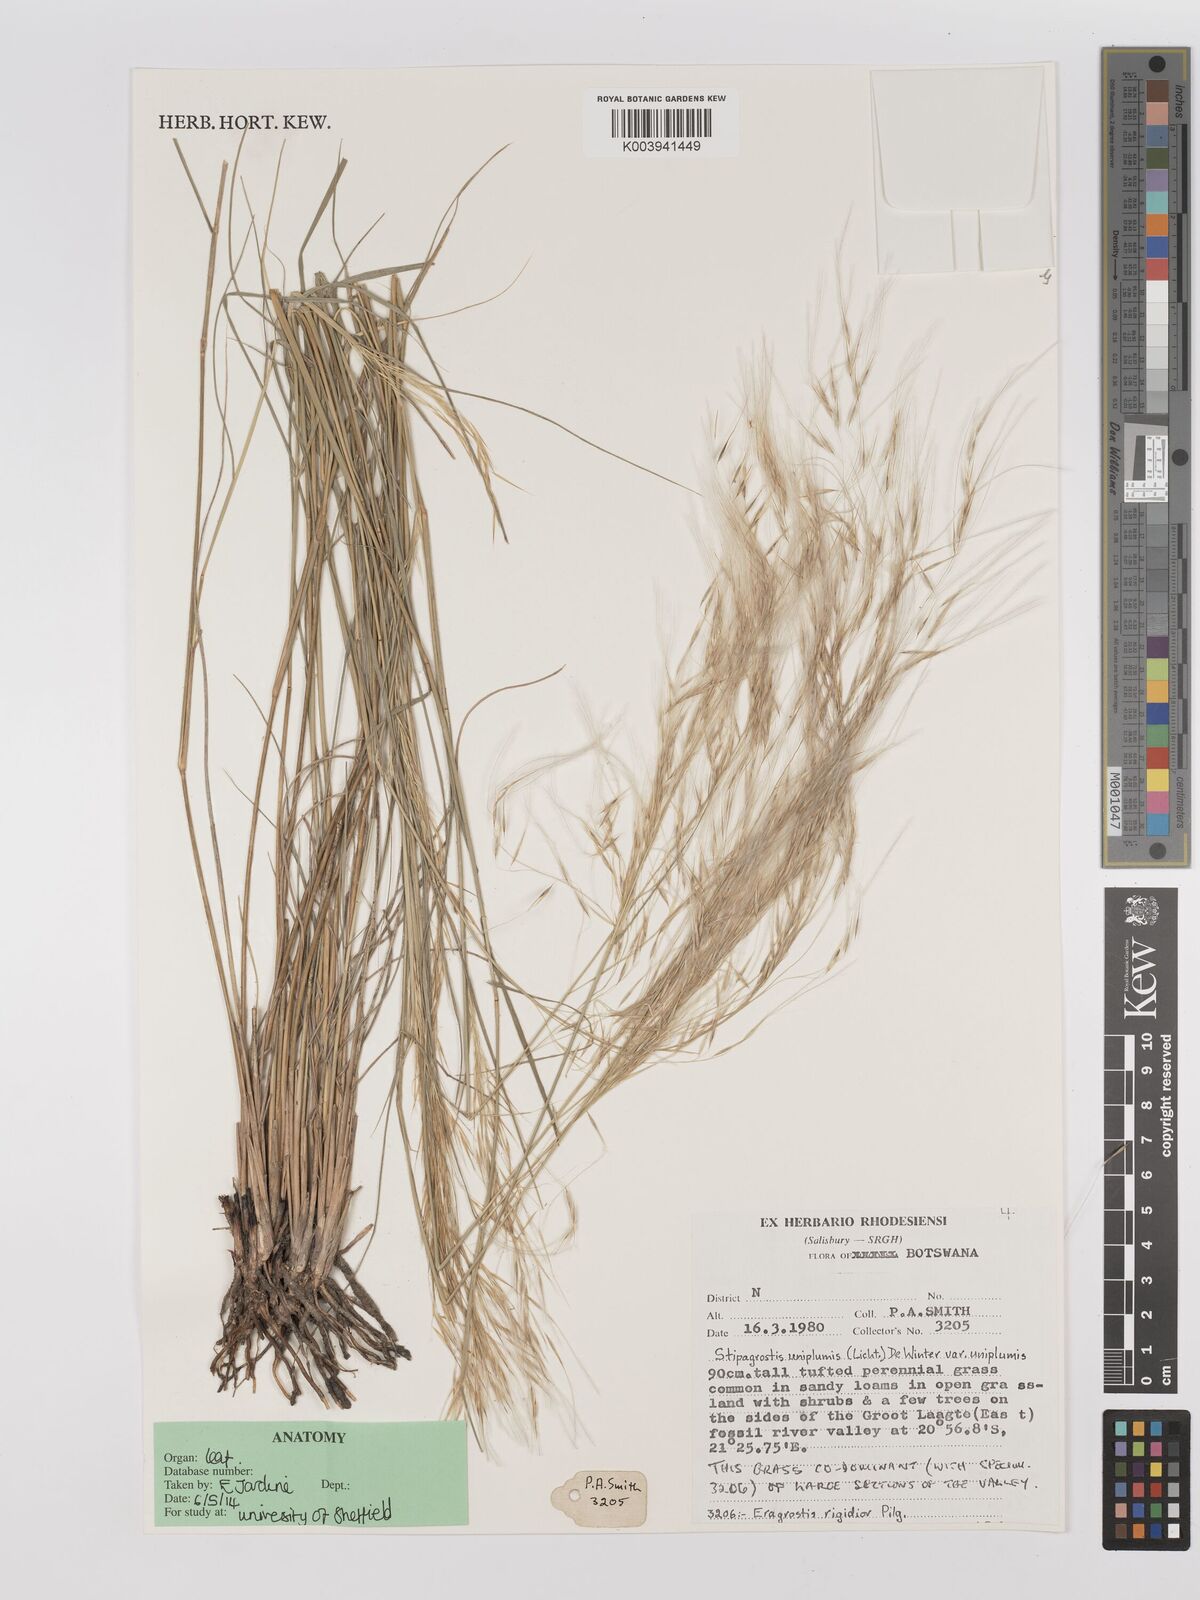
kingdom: Plantae
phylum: Tracheophyta
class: Liliopsida
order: Poales
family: Poaceae
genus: Stipagrostis
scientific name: Stipagrostis uniplumis
